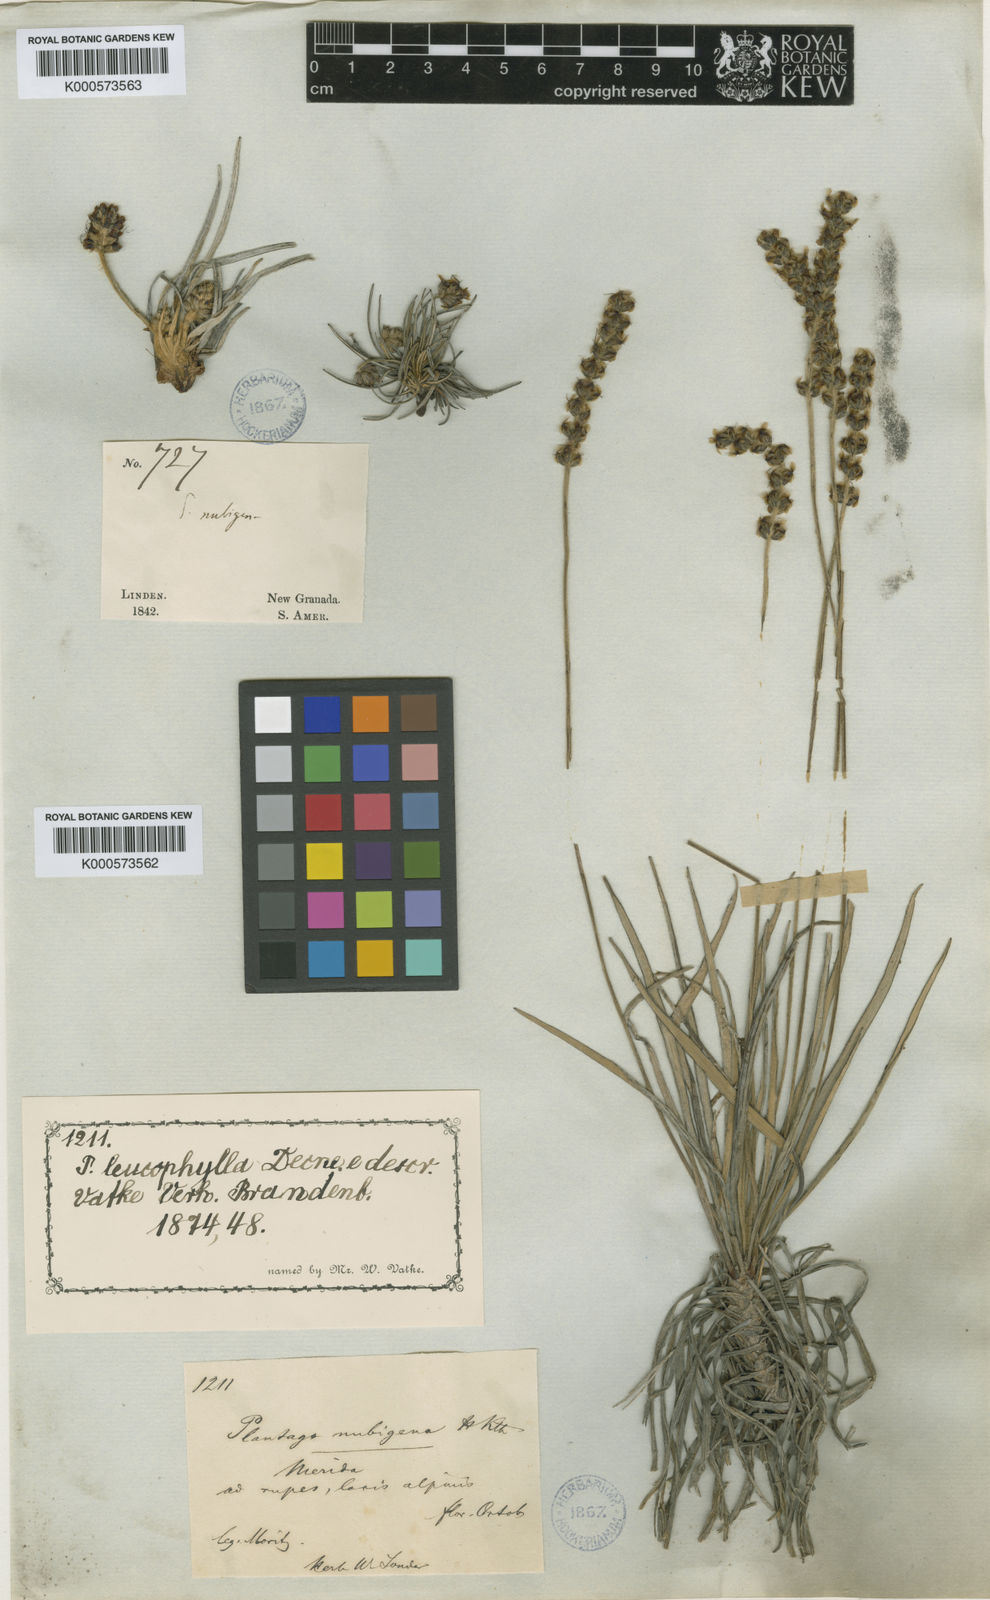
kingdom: Plantae
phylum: Tracheophyta
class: Magnoliopsida
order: Lamiales
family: Plantaginaceae
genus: Plantago
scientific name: Plantago sericea
